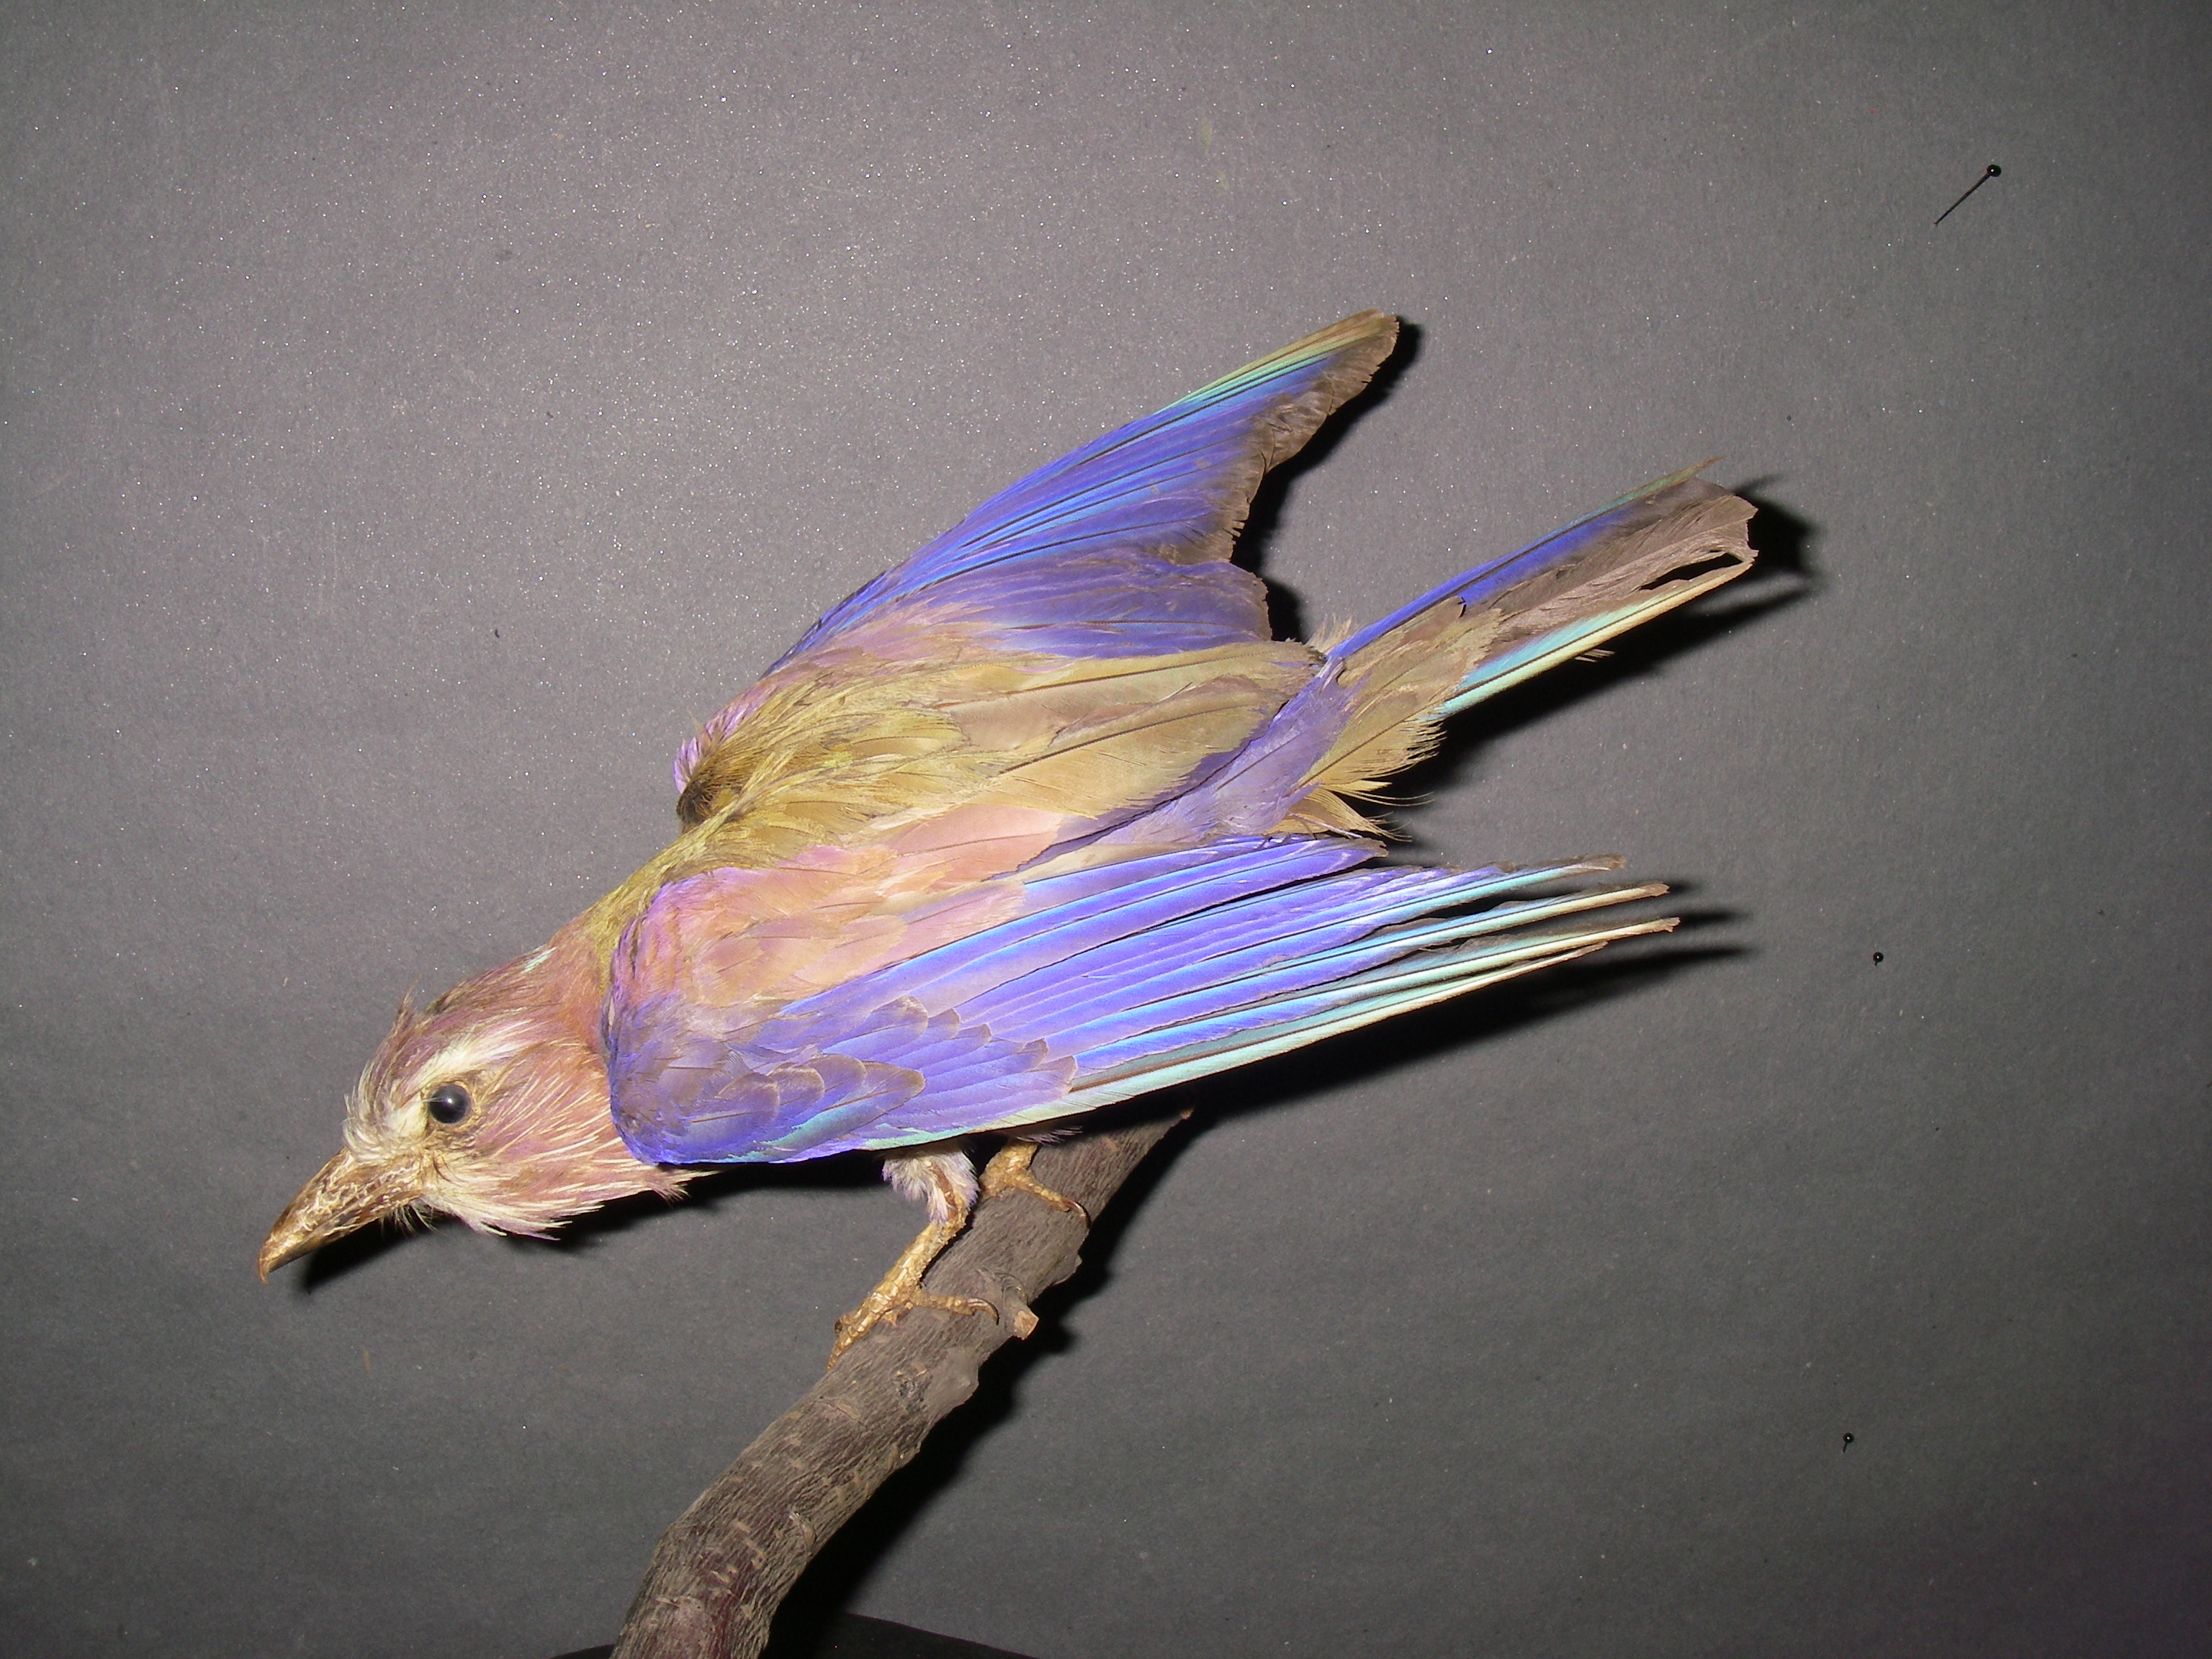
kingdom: Animalia
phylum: Chordata
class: Aves
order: Coraciiformes
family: Coraciidae
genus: Coracias
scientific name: Coracias naevius
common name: Purple roller
